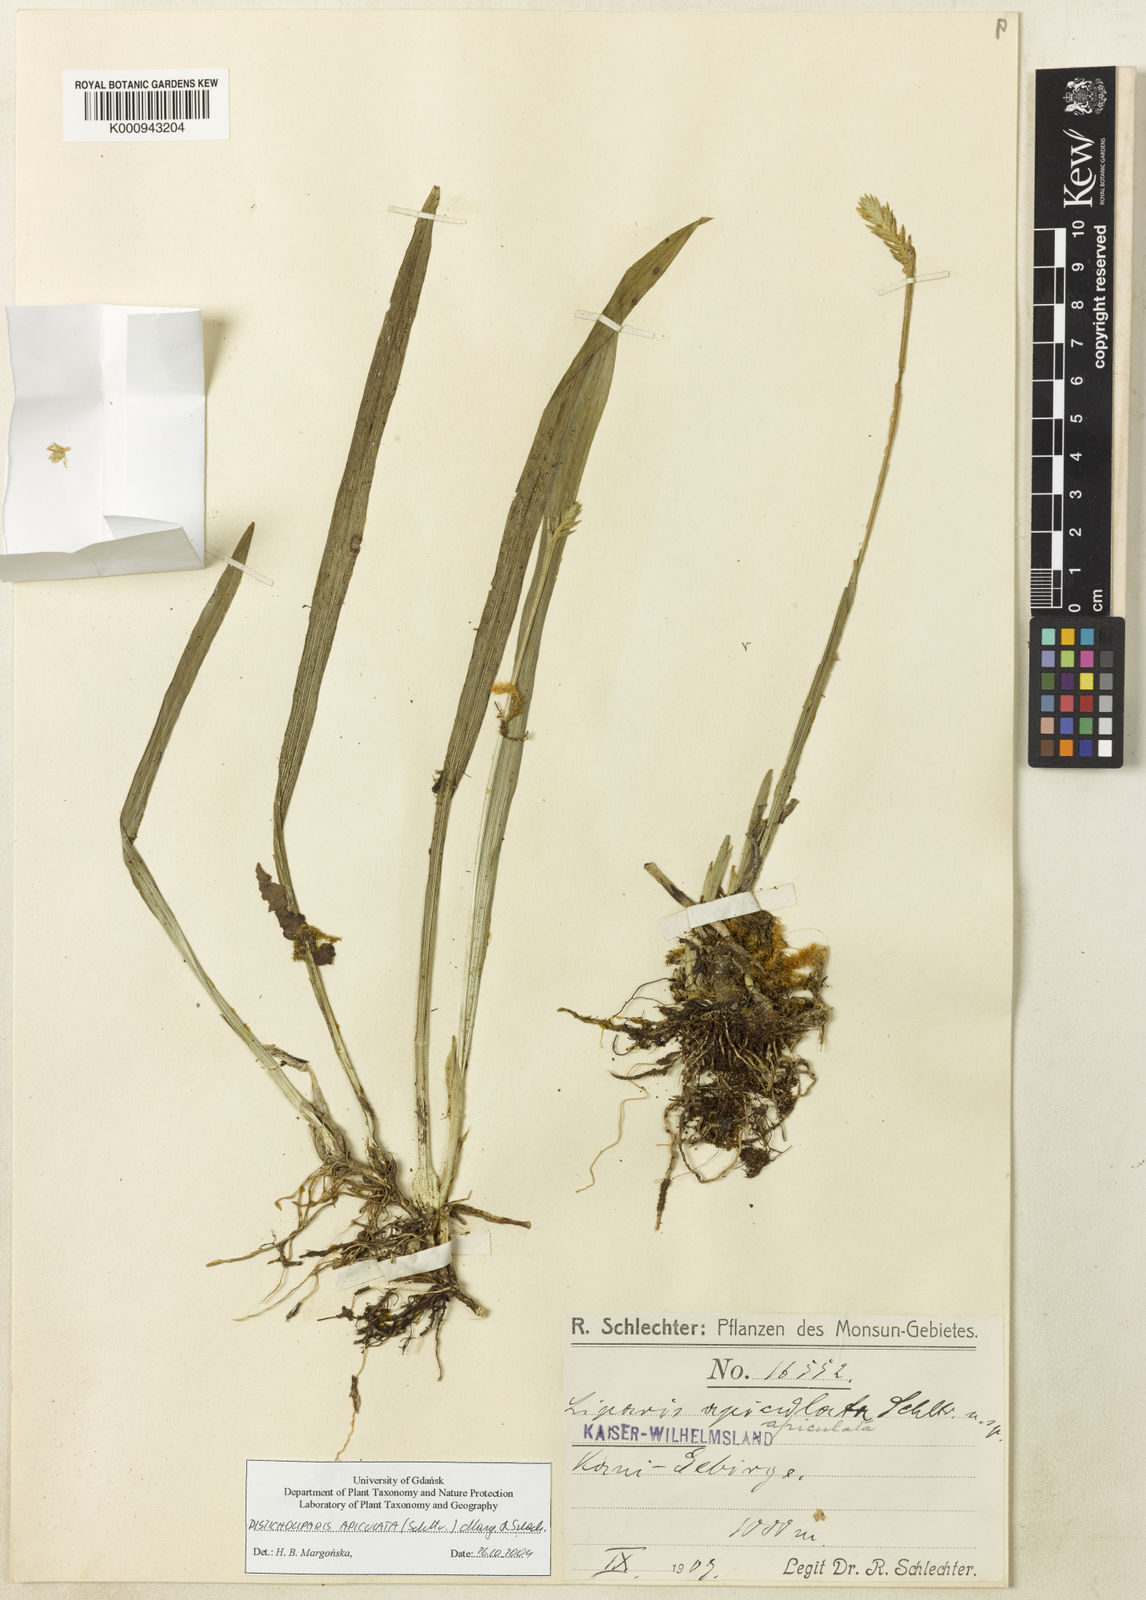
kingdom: Plantae
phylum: Tracheophyta
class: Liliopsida
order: Asparagales
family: Orchidaceae
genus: Liparis
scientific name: Liparis apiculata
